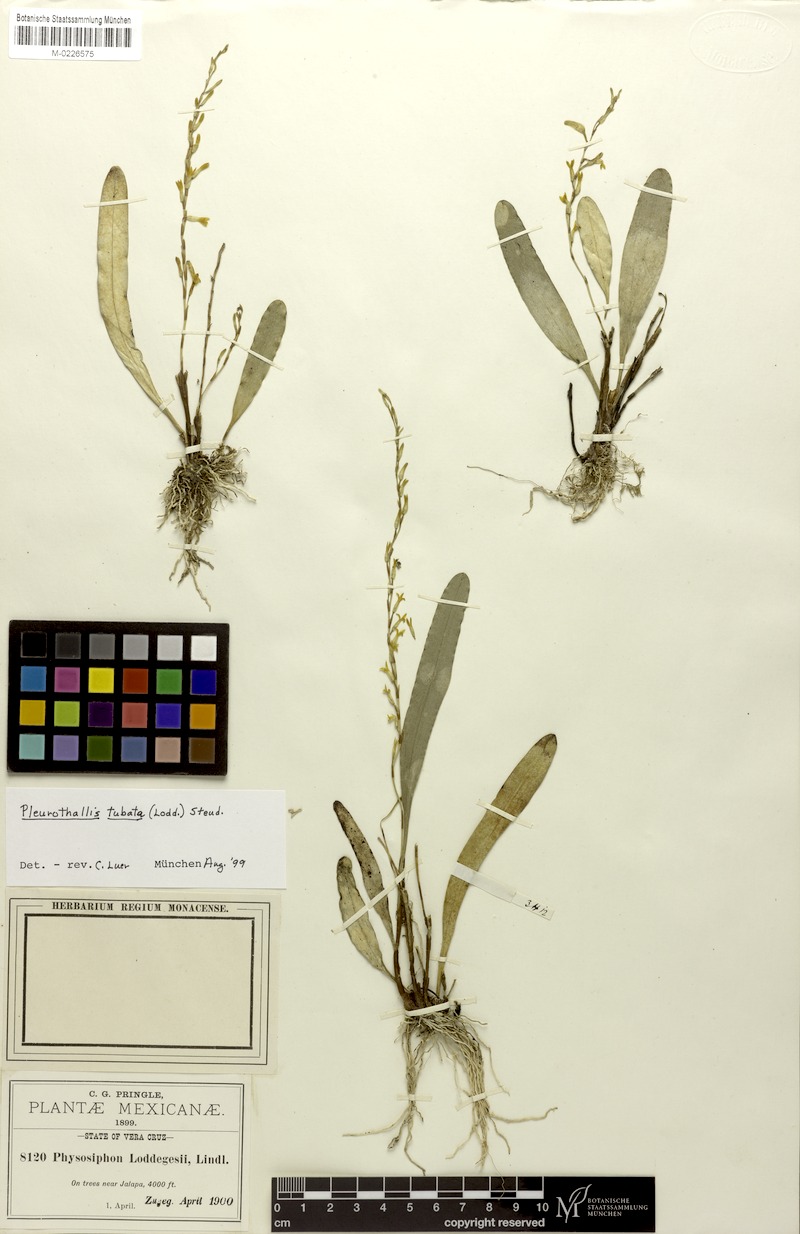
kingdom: Plantae
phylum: Tracheophyta
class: Liliopsida
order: Asparagales
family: Orchidaceae
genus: Stelis
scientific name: Stelis emarginata
